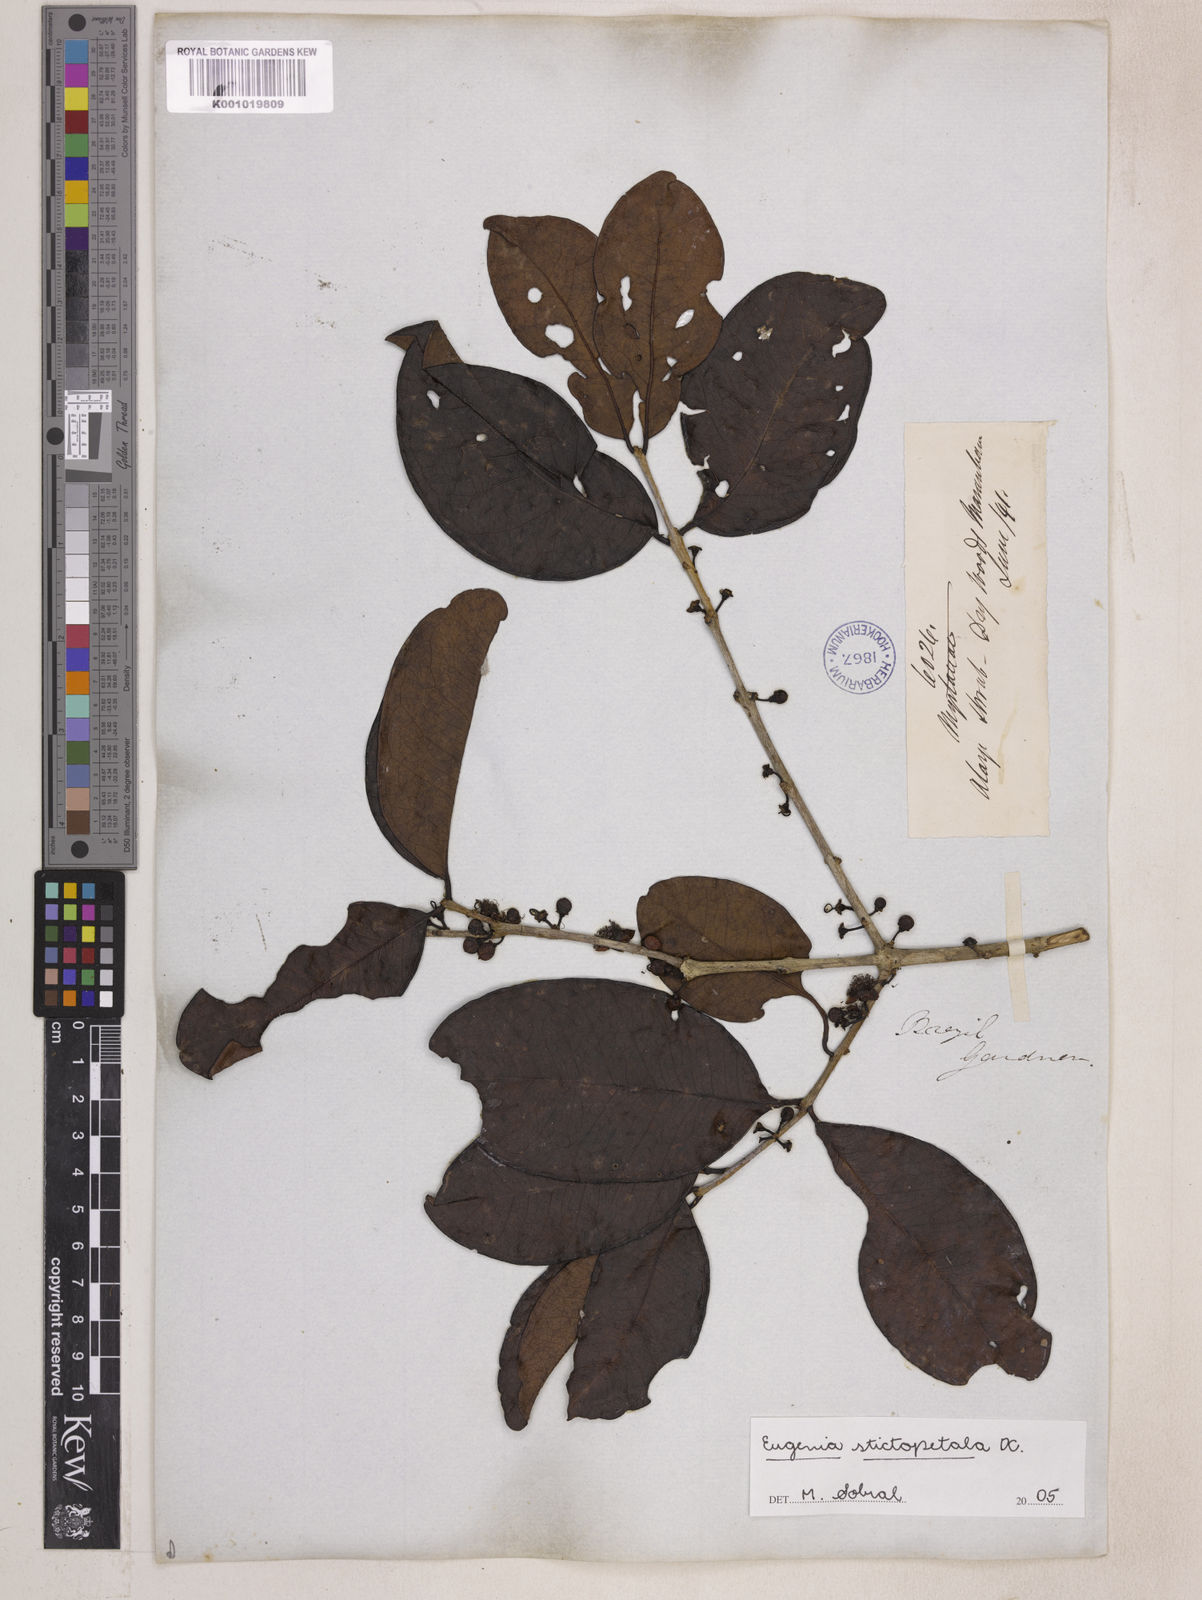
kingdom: Plantae
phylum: Tracheophyta
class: Magnoliopsida
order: Myrtales
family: Myrtaceae
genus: Eugenia
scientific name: Eugenia stictopetala
